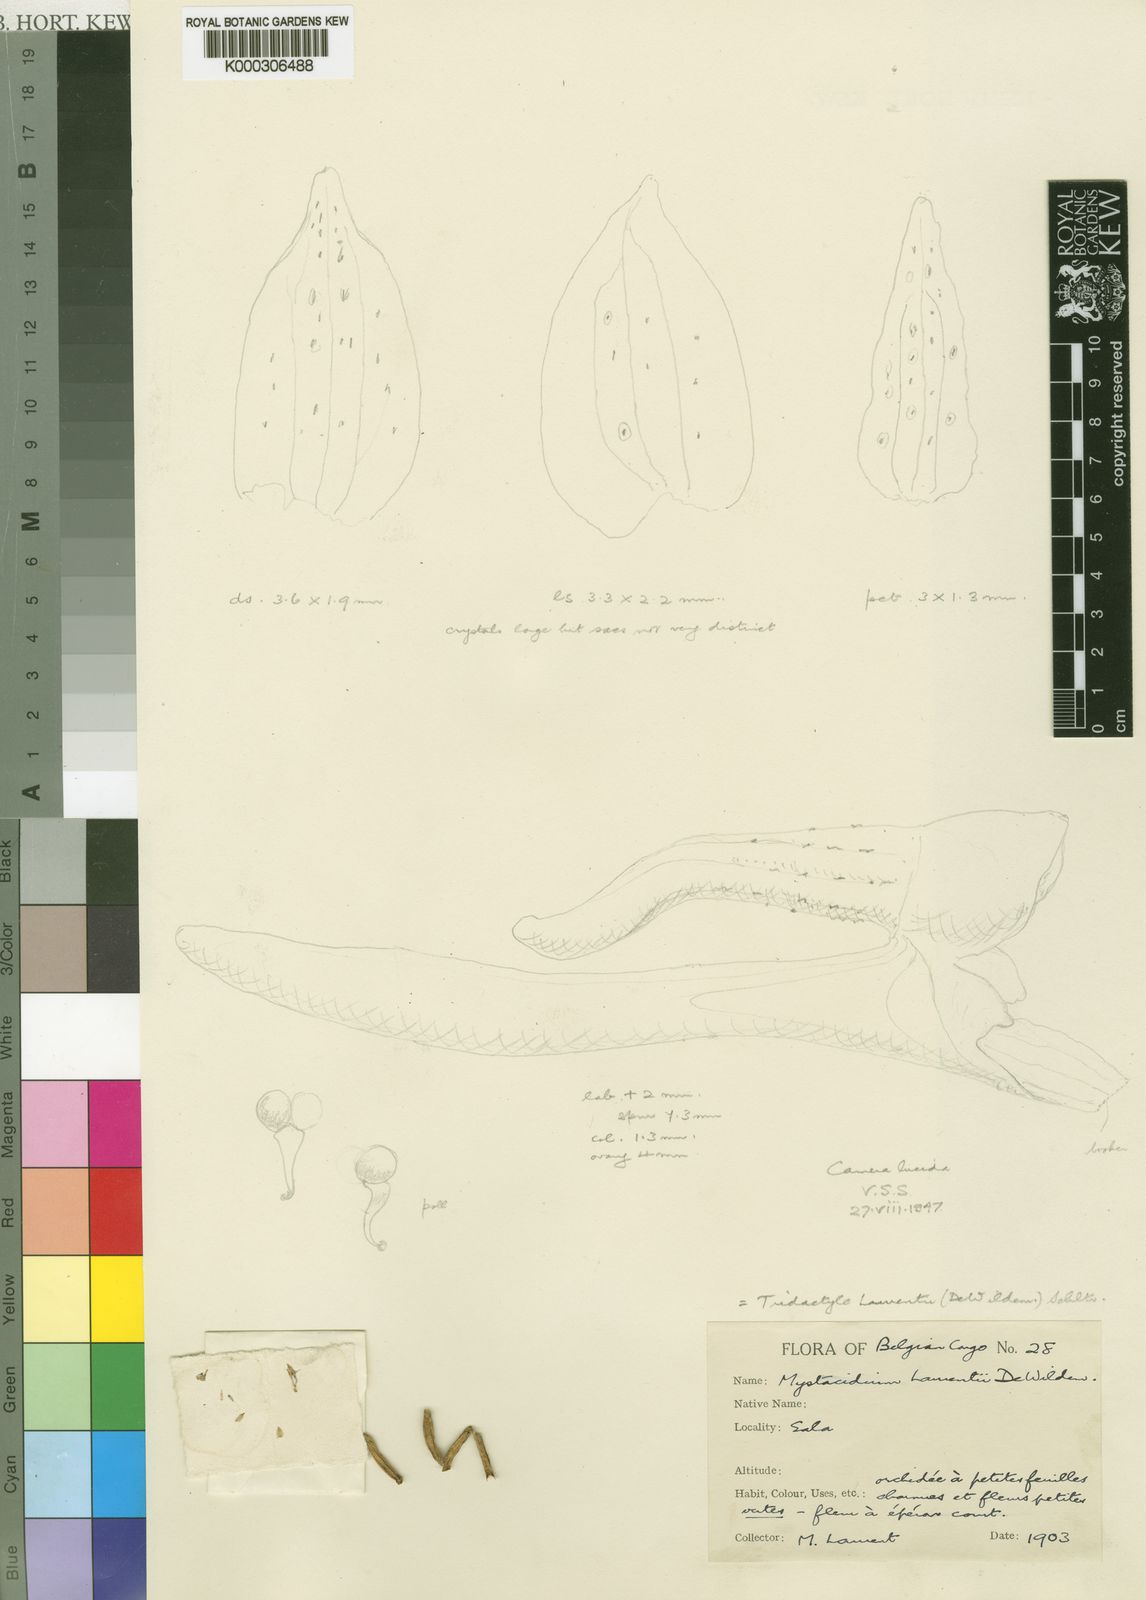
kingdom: Plantae
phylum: Tracheophyta
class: Liliopsida
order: Asparagales
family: Orchidaceae
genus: Tridactyle
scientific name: Tridactyle laurentii
